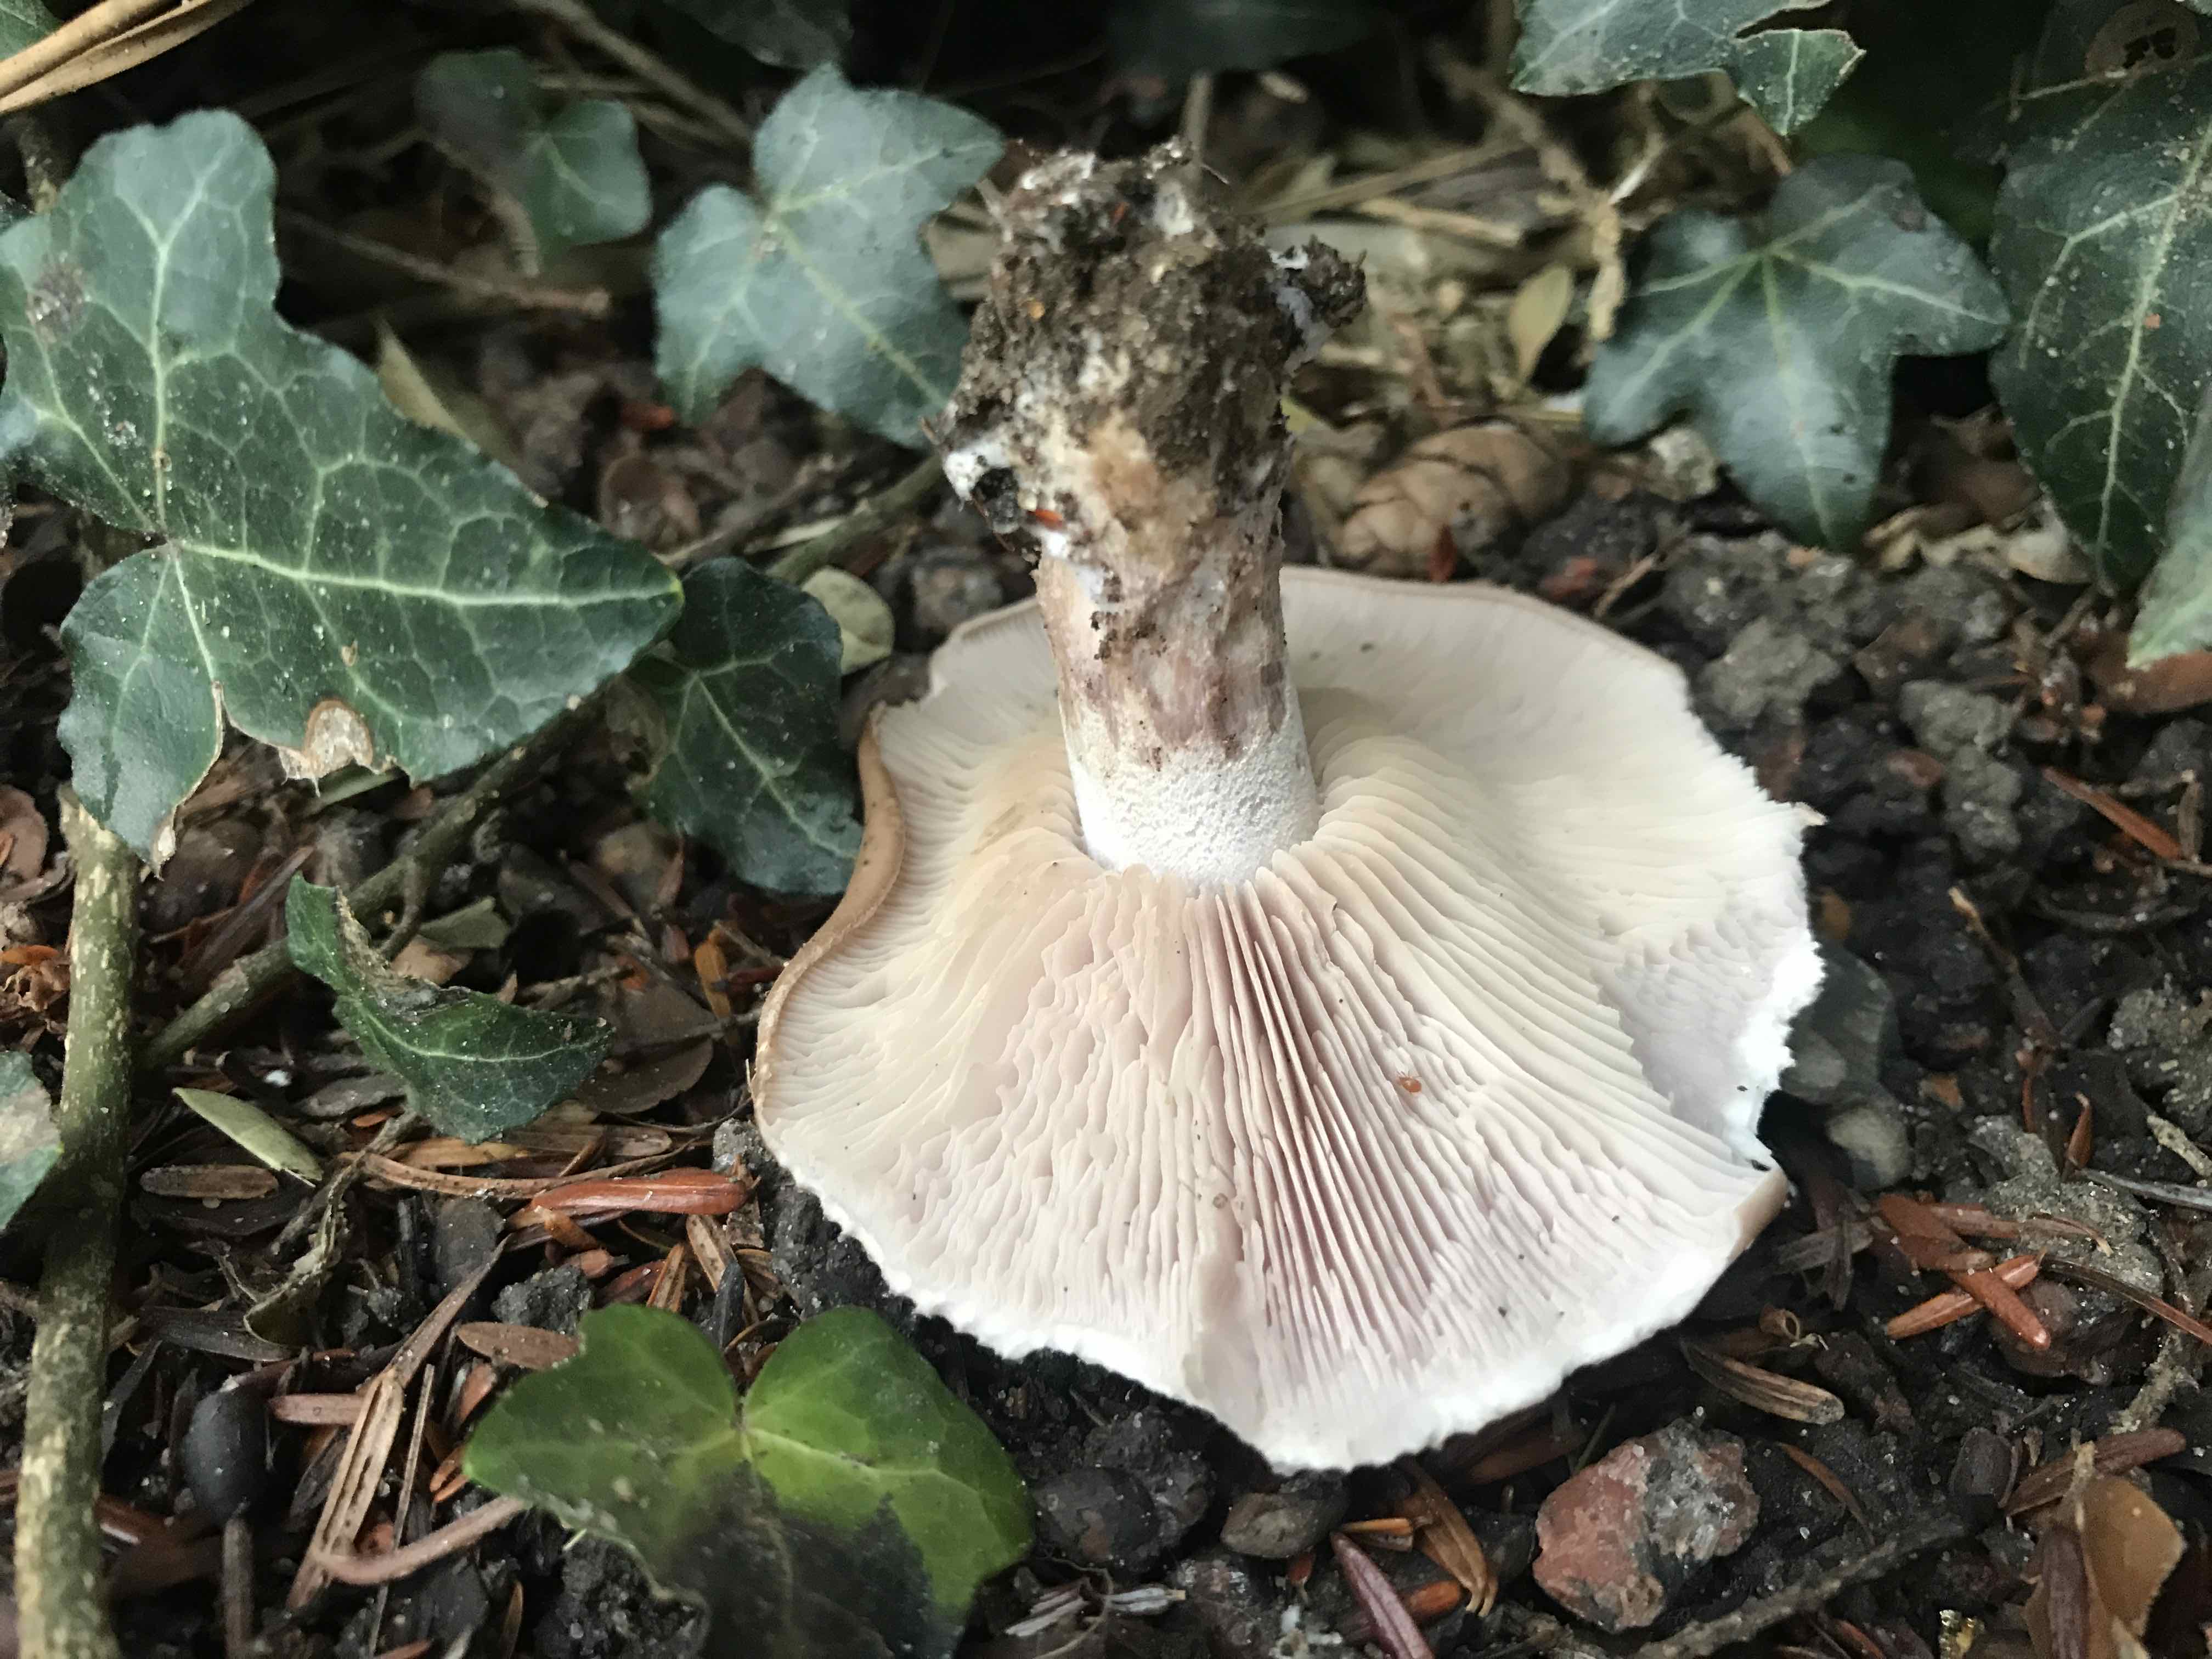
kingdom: Fungi
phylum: Basidiomycota
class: Agaricomycetes
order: Agaricales
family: Tricholomataceae
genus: Lepista
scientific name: Lepista personata
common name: bleg hekseringshat
